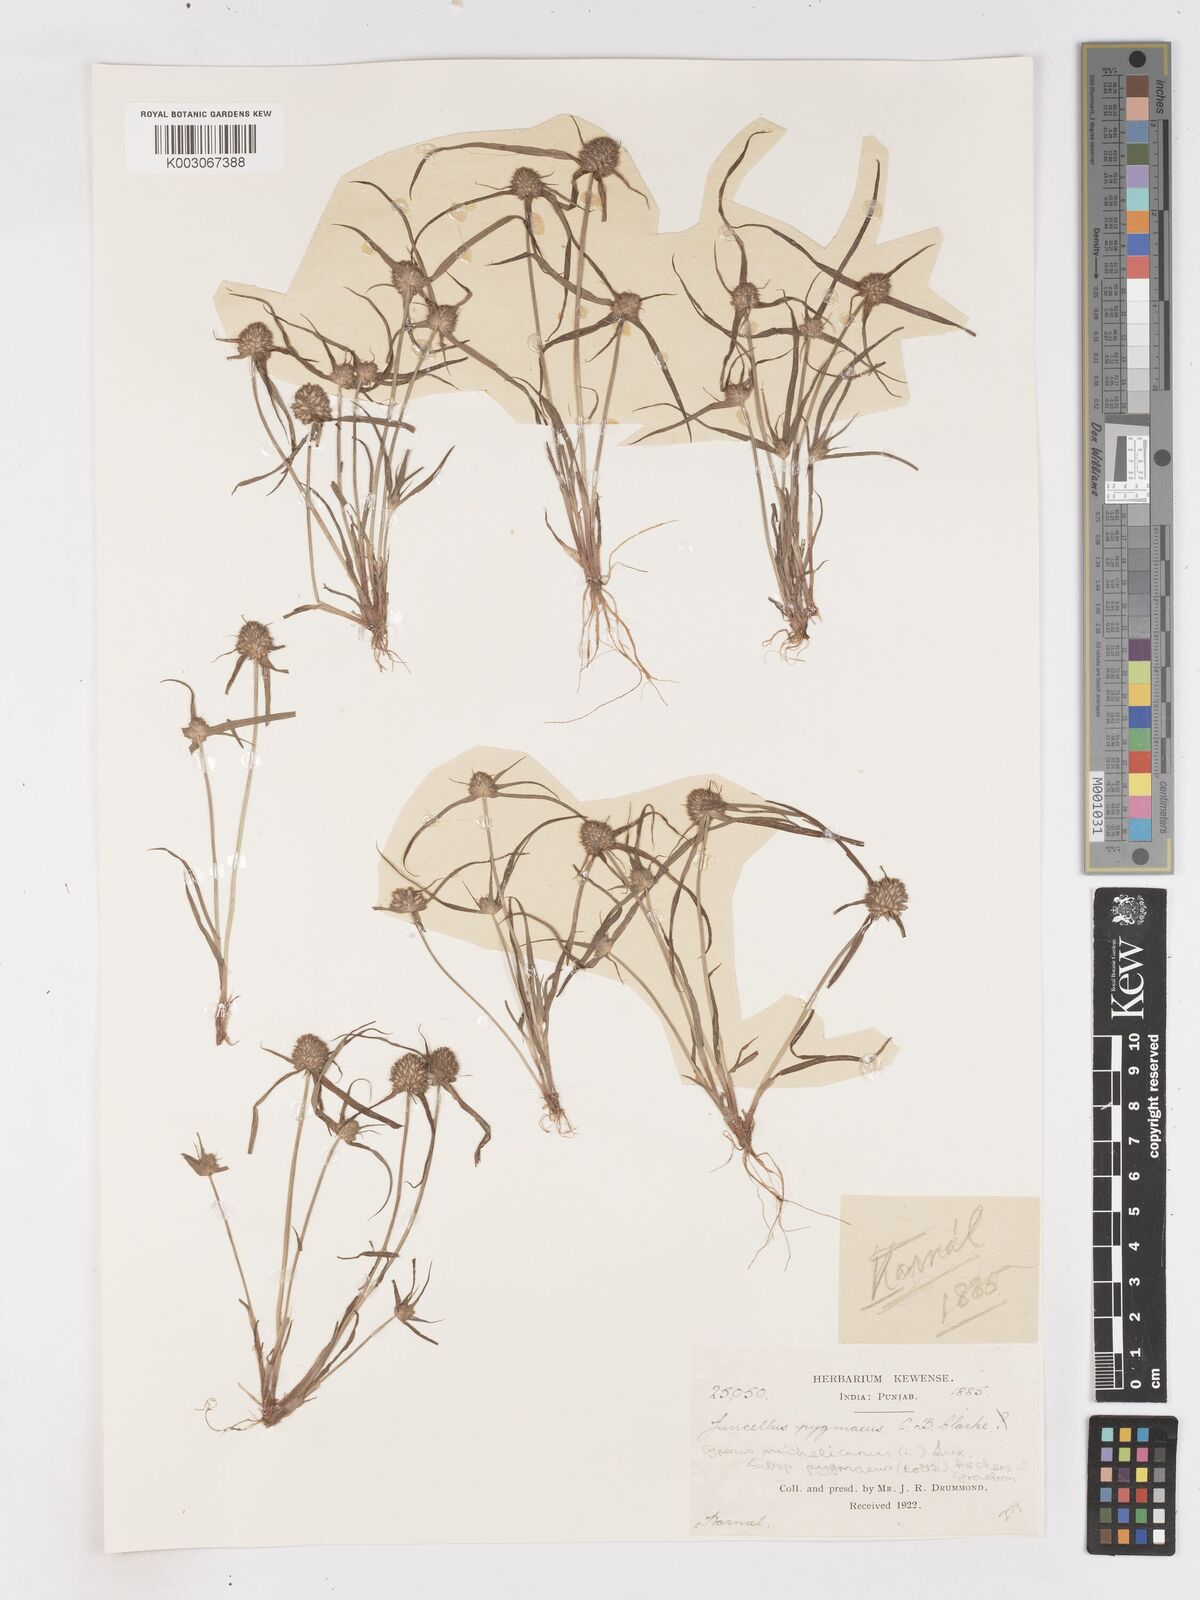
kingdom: Plantae
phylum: Tracheophyta
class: Liliopsida
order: Poales
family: Cyperaceae
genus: Cyperus
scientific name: Cyperus michelianus
